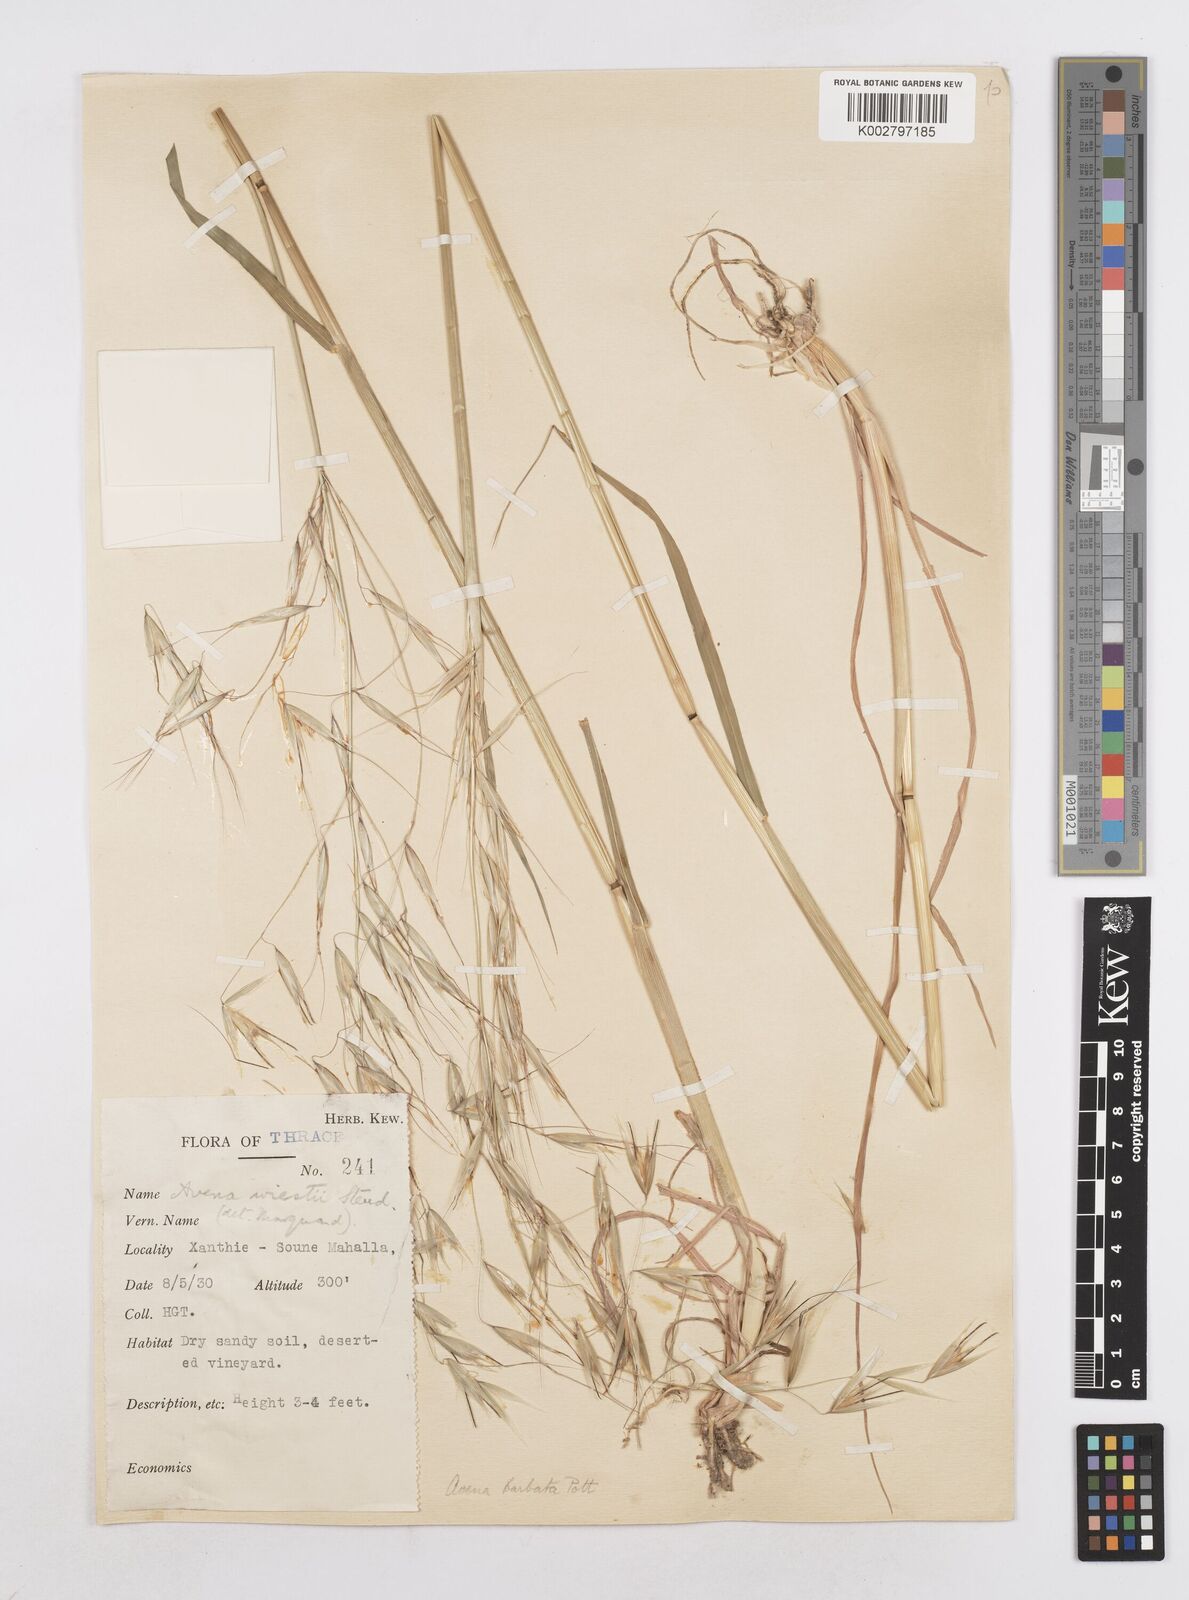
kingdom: Plantae
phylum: Tracheophyta
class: Liliopsida
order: Poales
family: Poaceae
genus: Avena
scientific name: Avena
